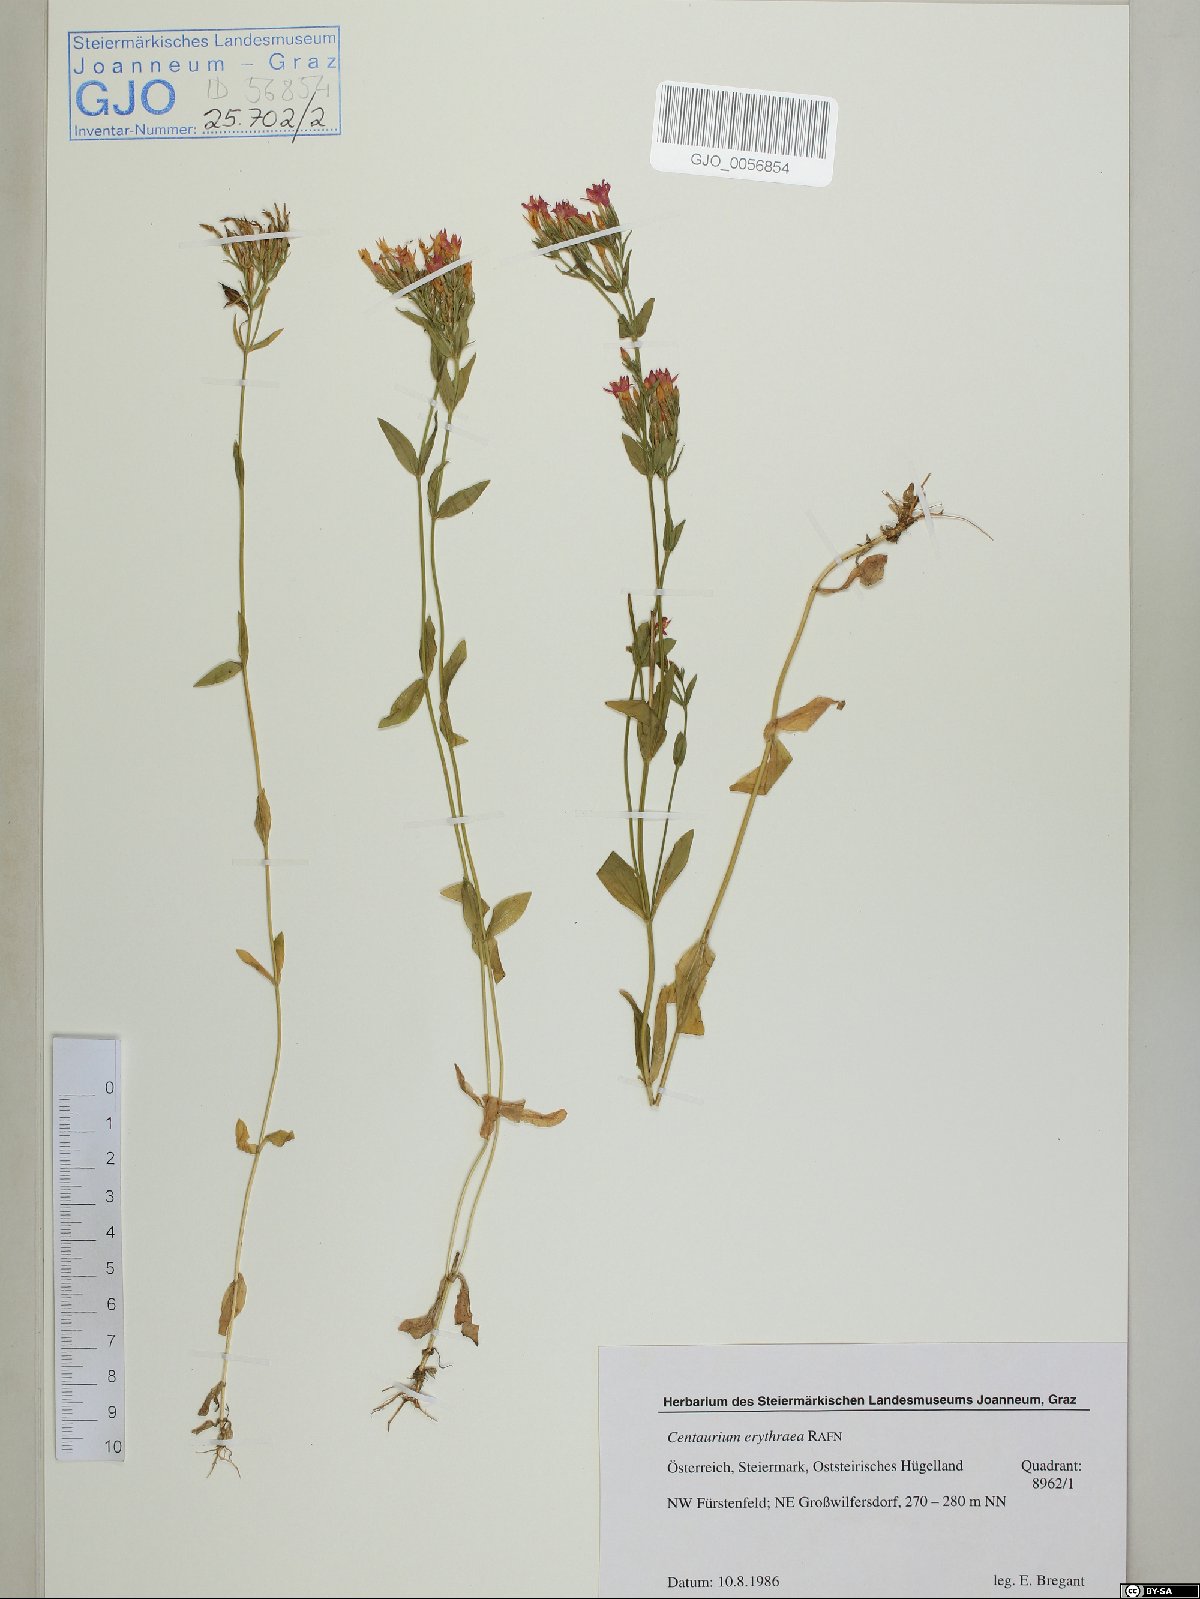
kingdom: Plantae
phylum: Tracheophyta
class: Magnoliopsida
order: Gentianales
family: Gentianaceae
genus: Centaurium
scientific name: Centaurium erythraea
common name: Common centaury
